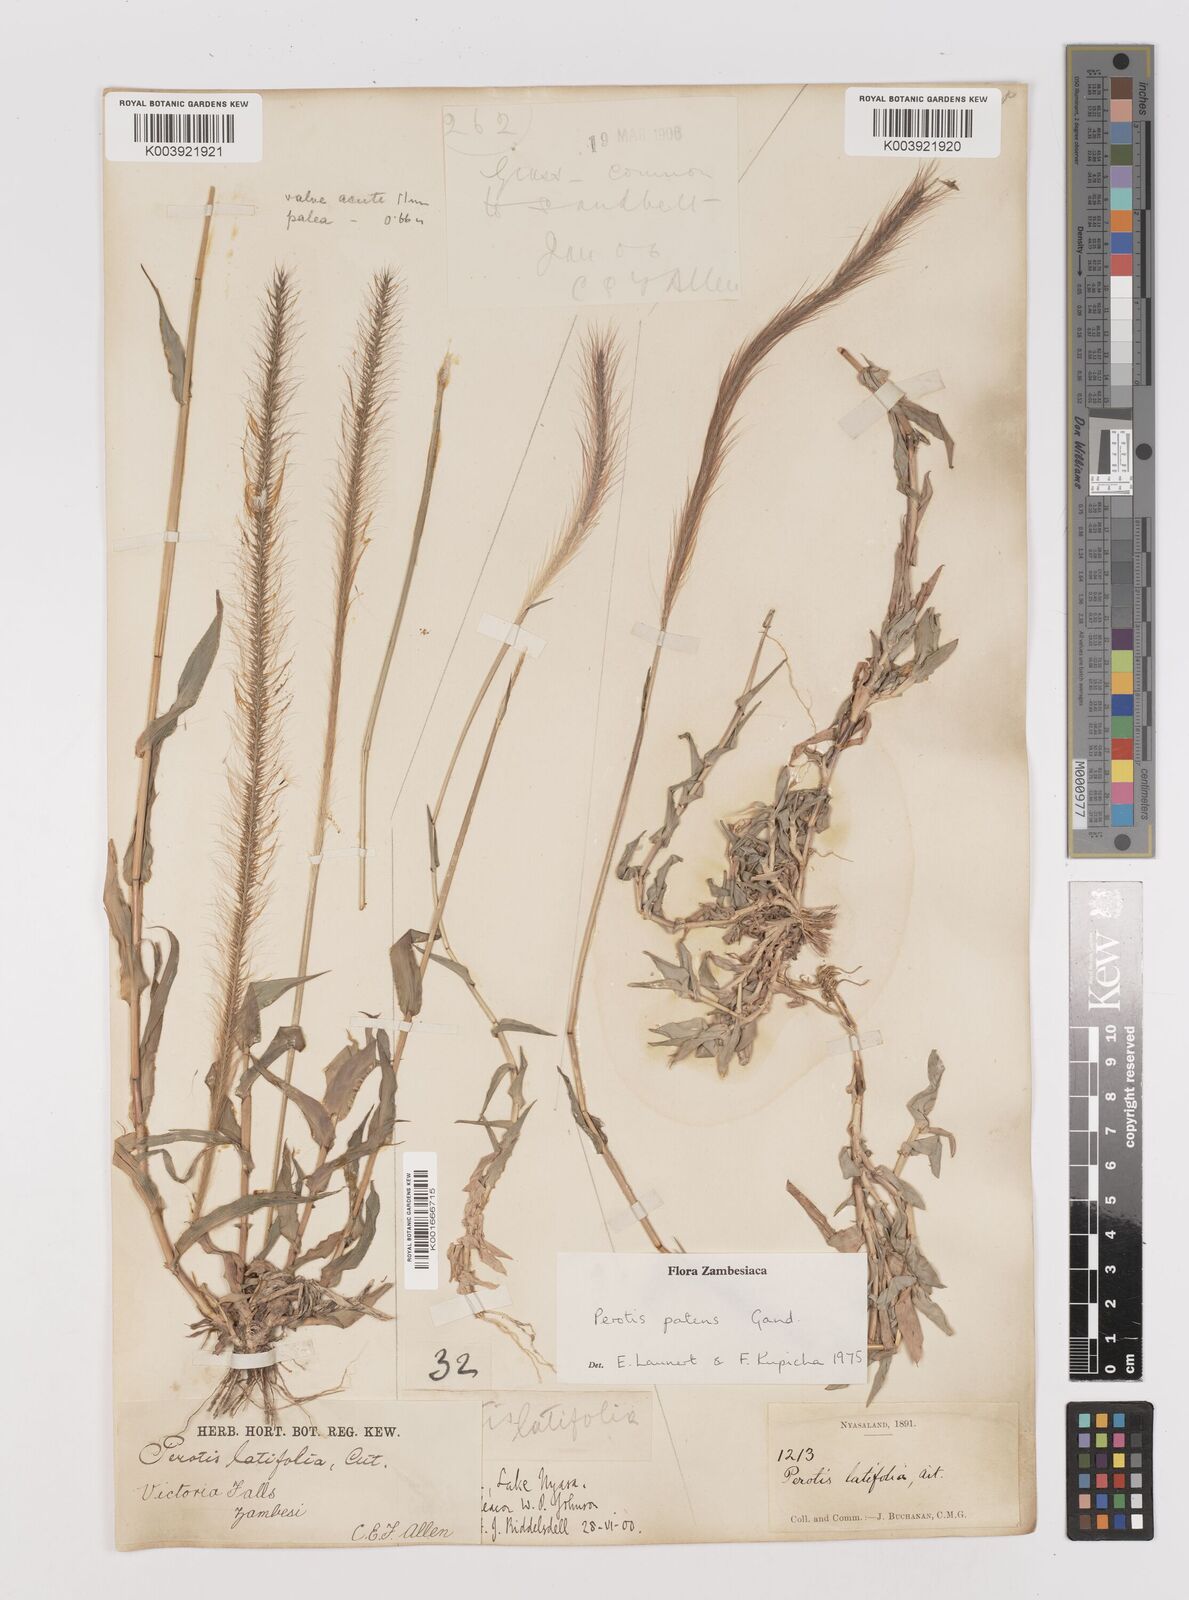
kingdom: Plantae
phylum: Tracheophyta
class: Liliopsida
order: Poales
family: Poaceae
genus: Perotis
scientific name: Perotis patens
